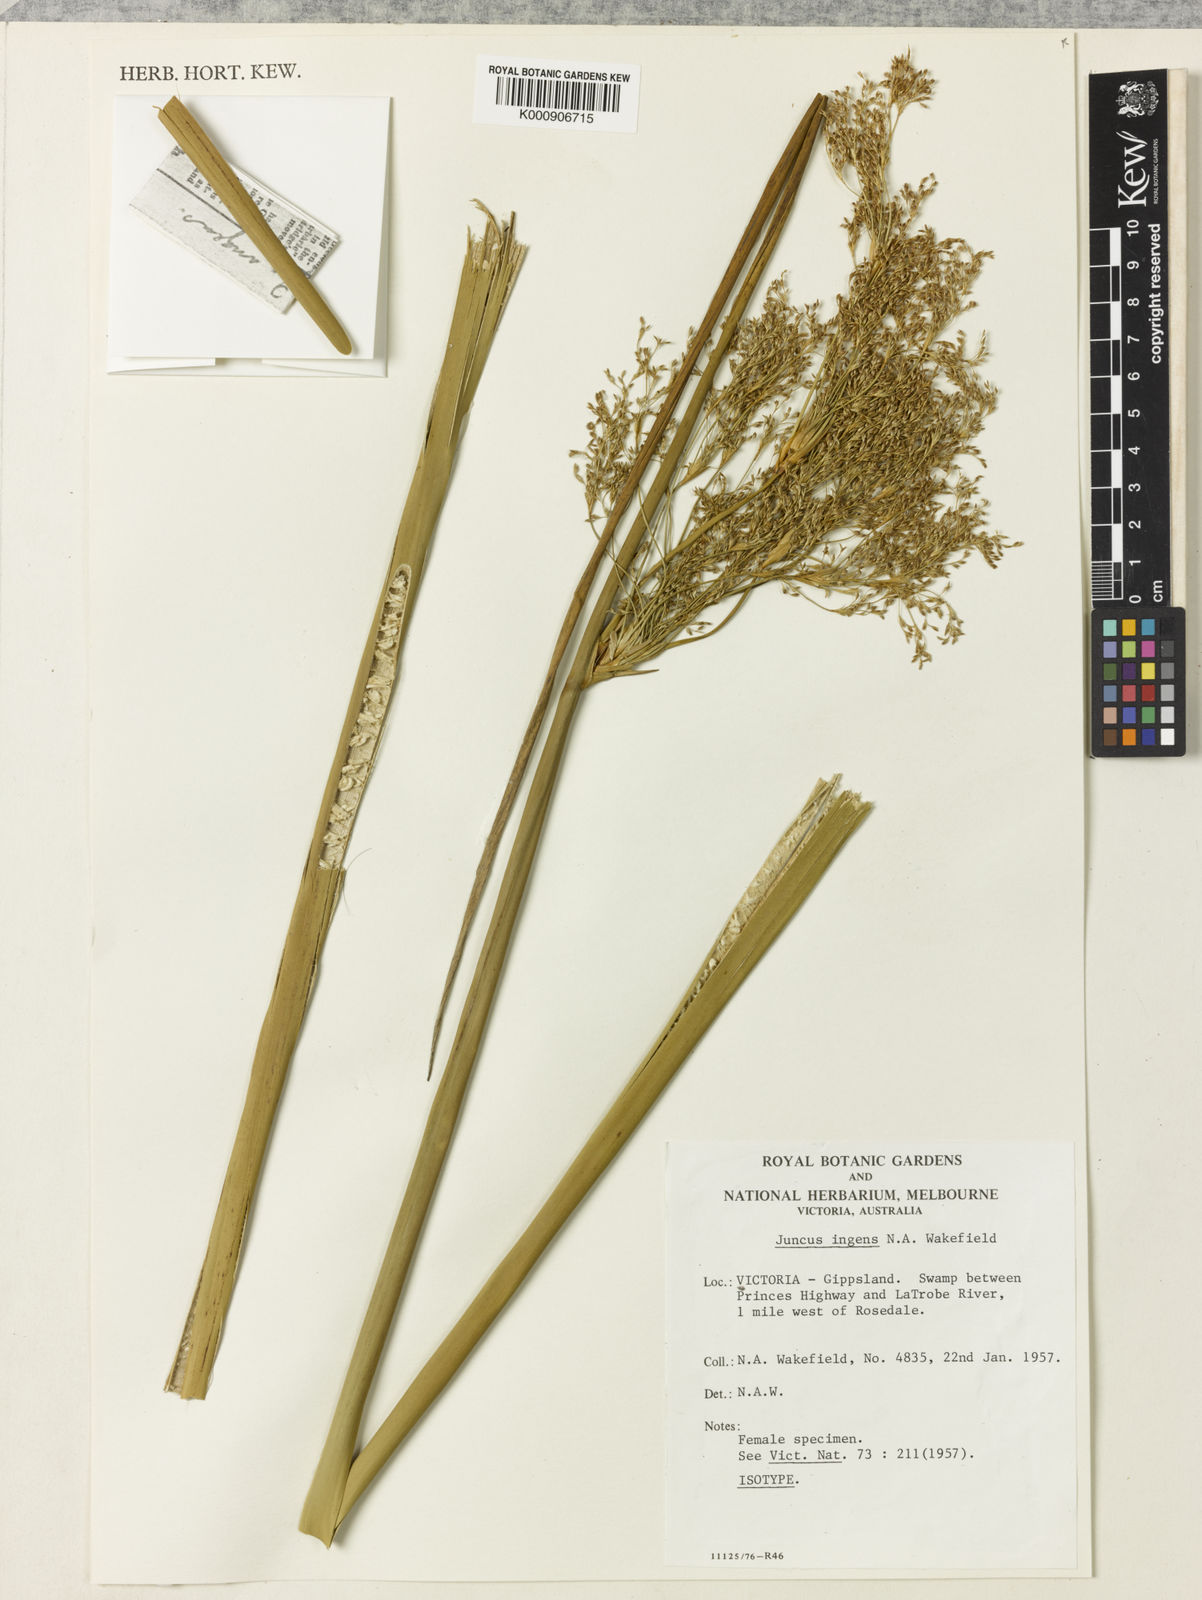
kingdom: Plantae
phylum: Tracheophyta
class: Liliopsida
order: Poales
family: Juncaceae
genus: Juncus
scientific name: Juncus ingens
